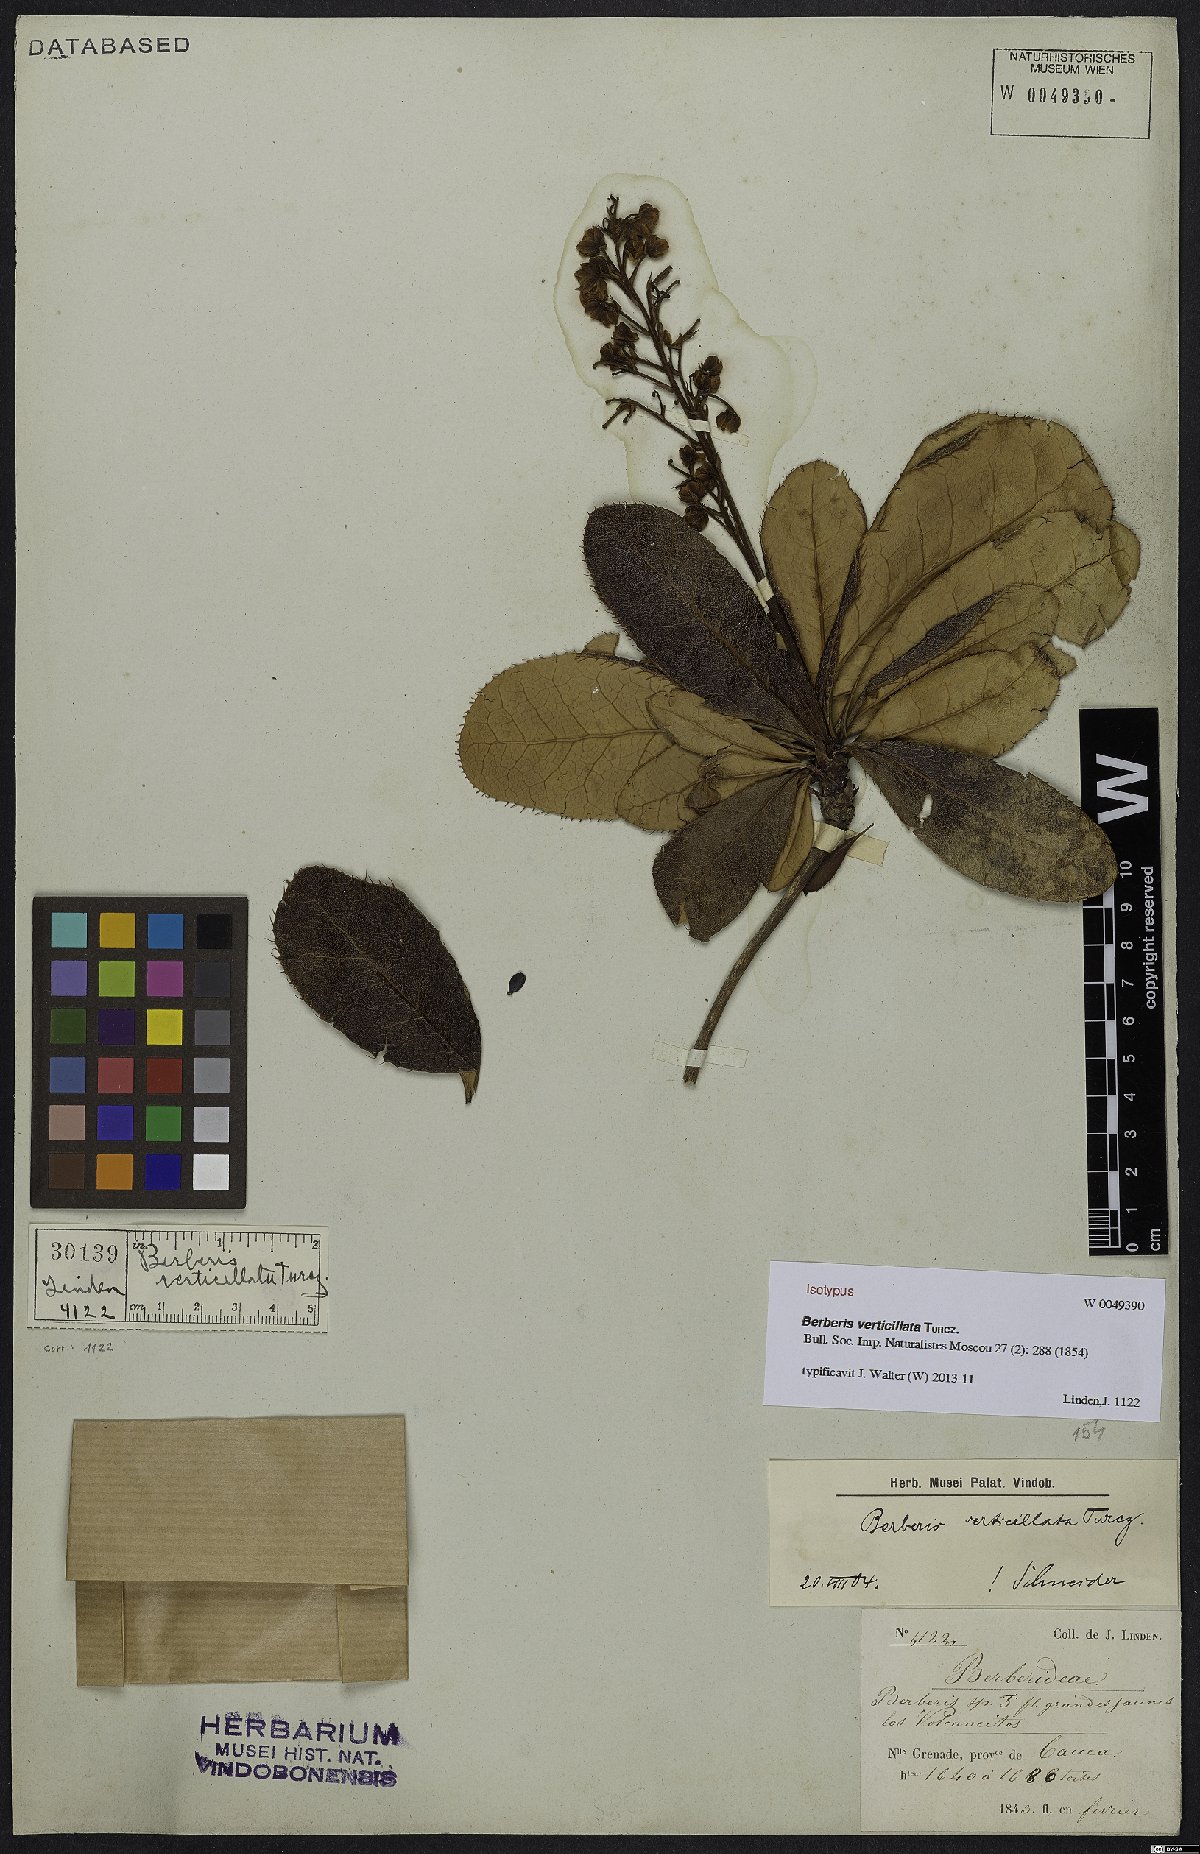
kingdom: Plantae
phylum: Tracheophyta
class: Magnoliopsida
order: Ranunculales
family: Berberidaceae
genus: Berberis
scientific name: Berberis verticillata
